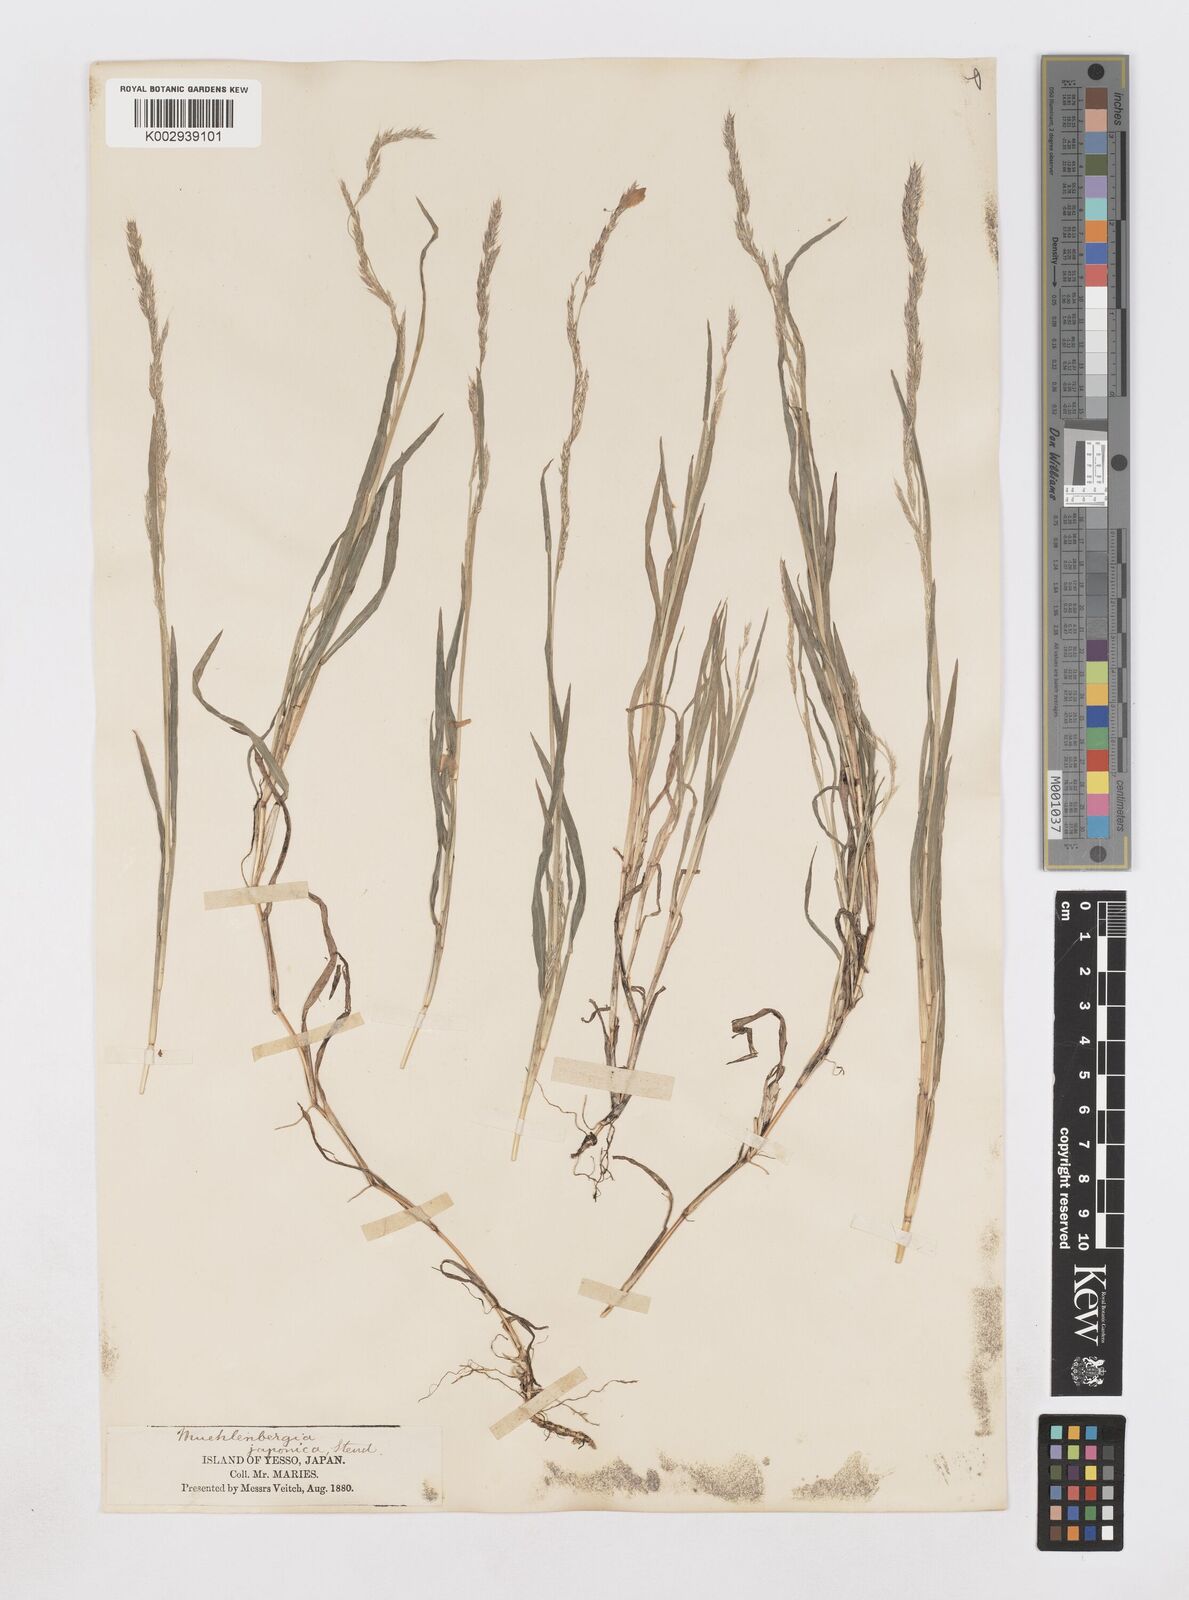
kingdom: Plantae
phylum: Tracheophyta
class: Liliopsida
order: Poales
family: Poaceae
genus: Muhlenbergia
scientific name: Muhlenbergia japonica
